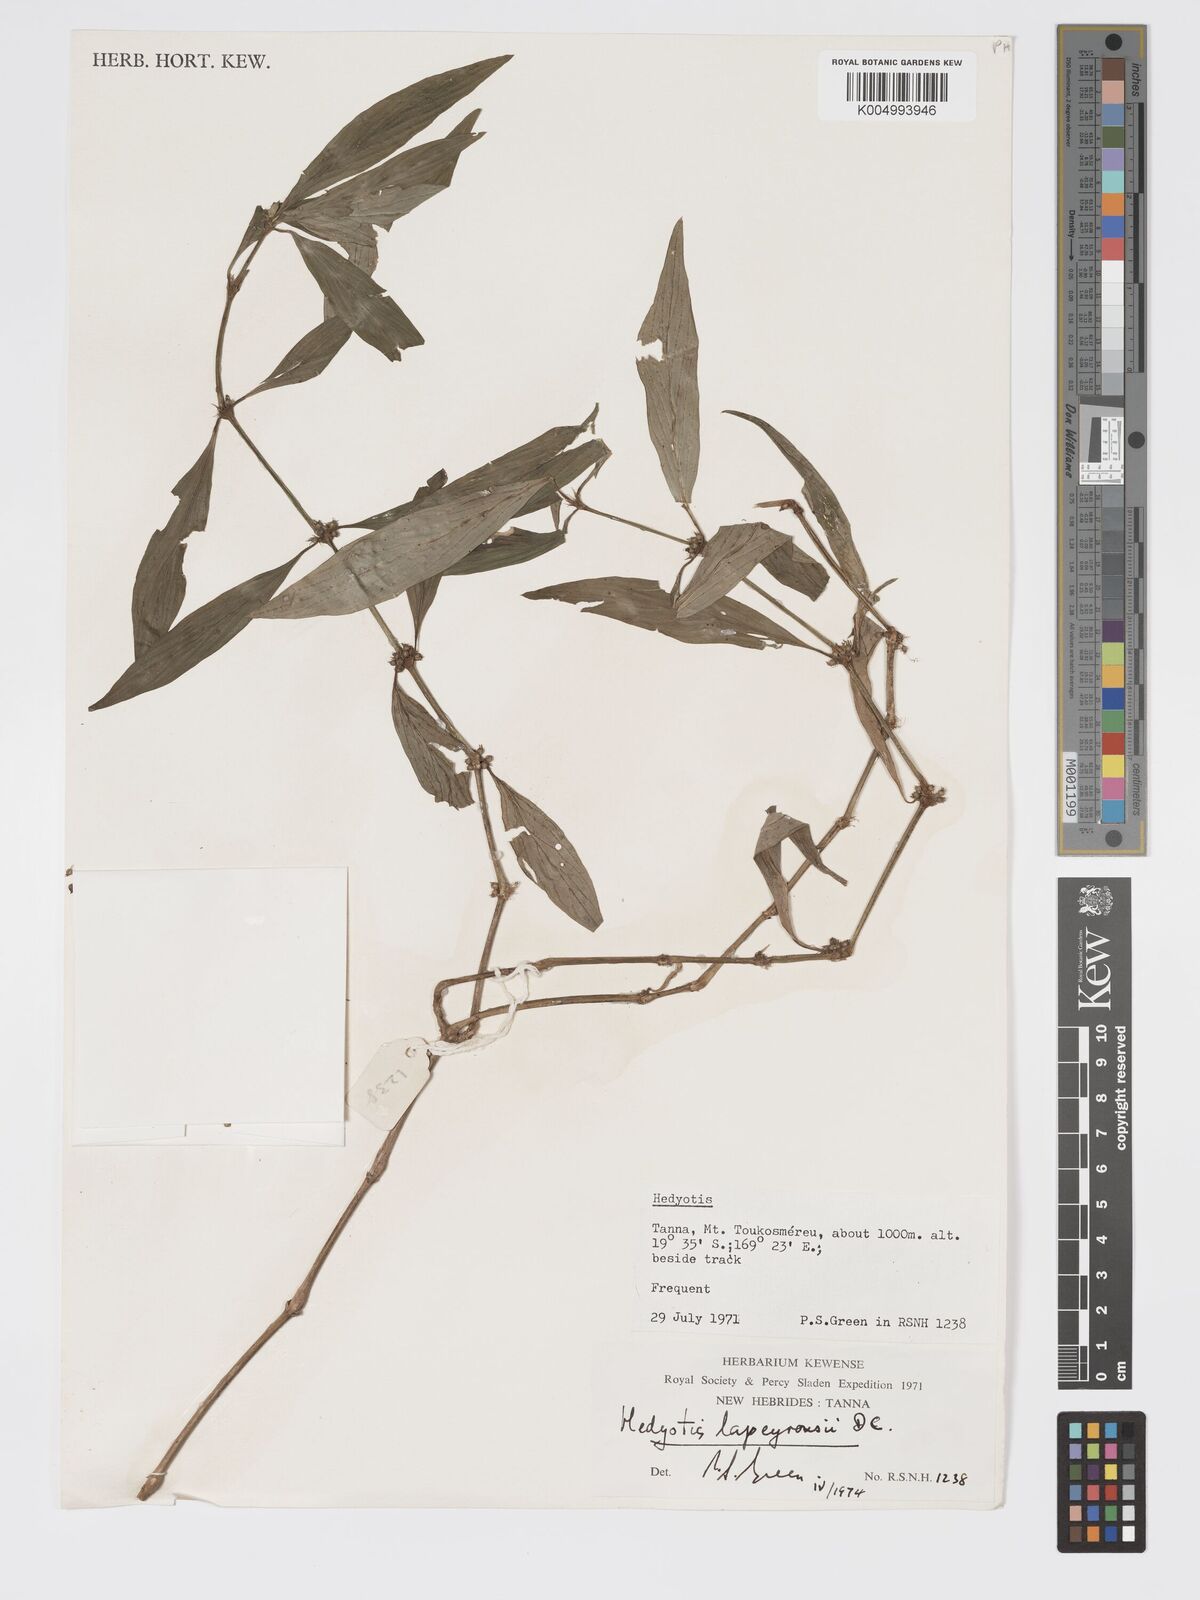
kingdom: Plantae
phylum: Tracheophyta
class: Magnoliopsida
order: Gentianales
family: Rubiaceae
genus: Exallage
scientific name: Exallage lapeyrousei
